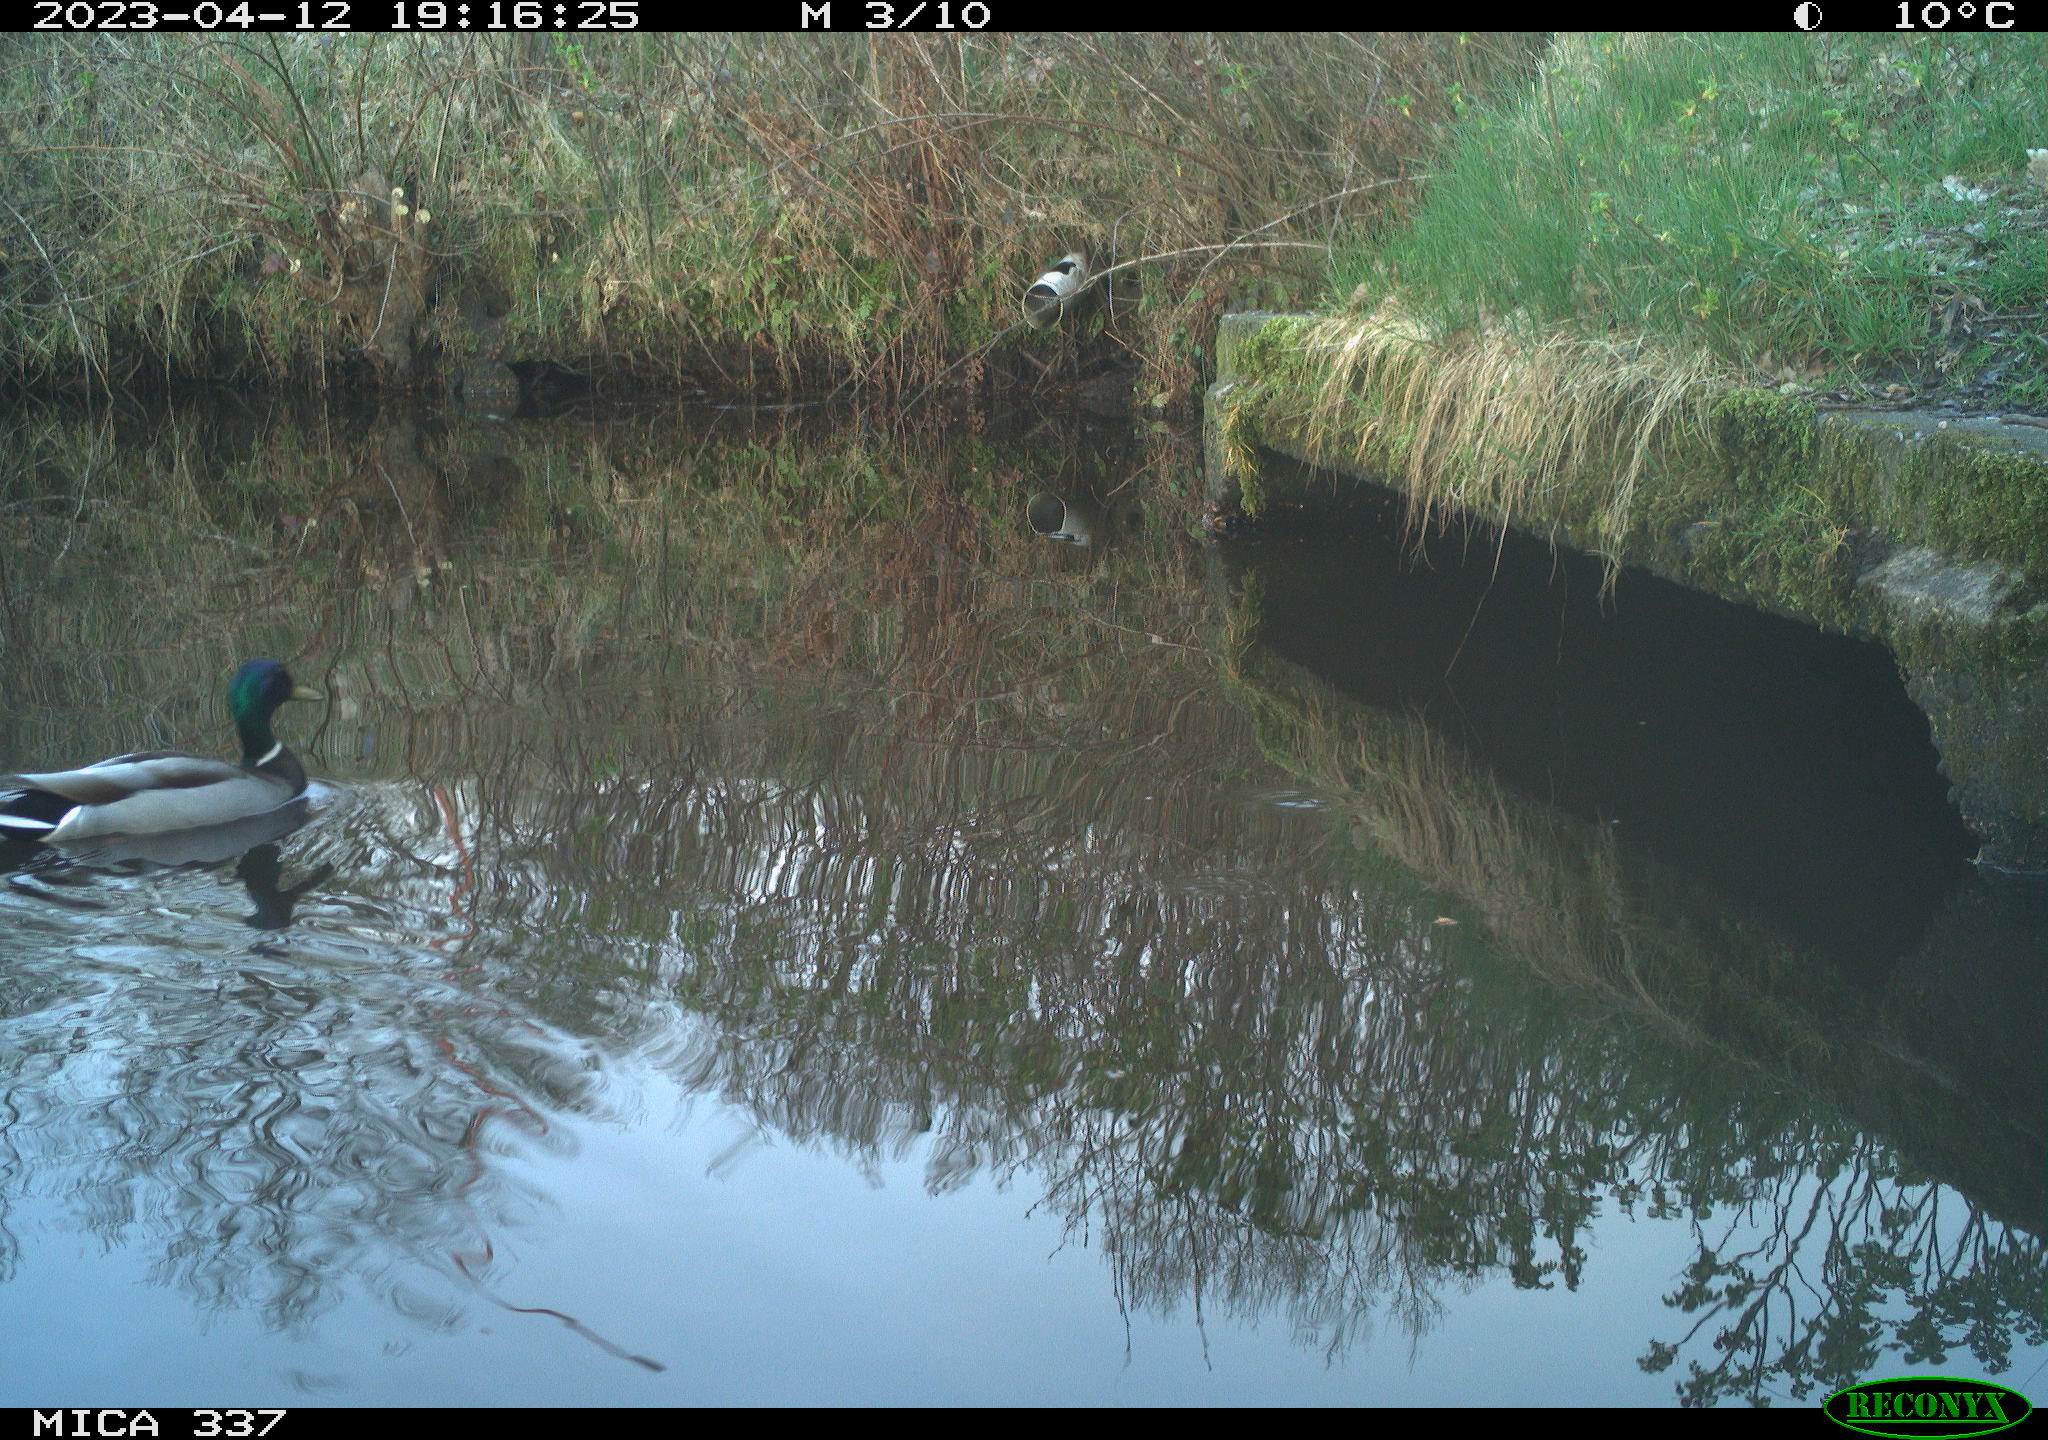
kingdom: Animalia
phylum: Chordata
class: Aves
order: Anseriformes
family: Anatidae
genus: Anas
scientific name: Anas
